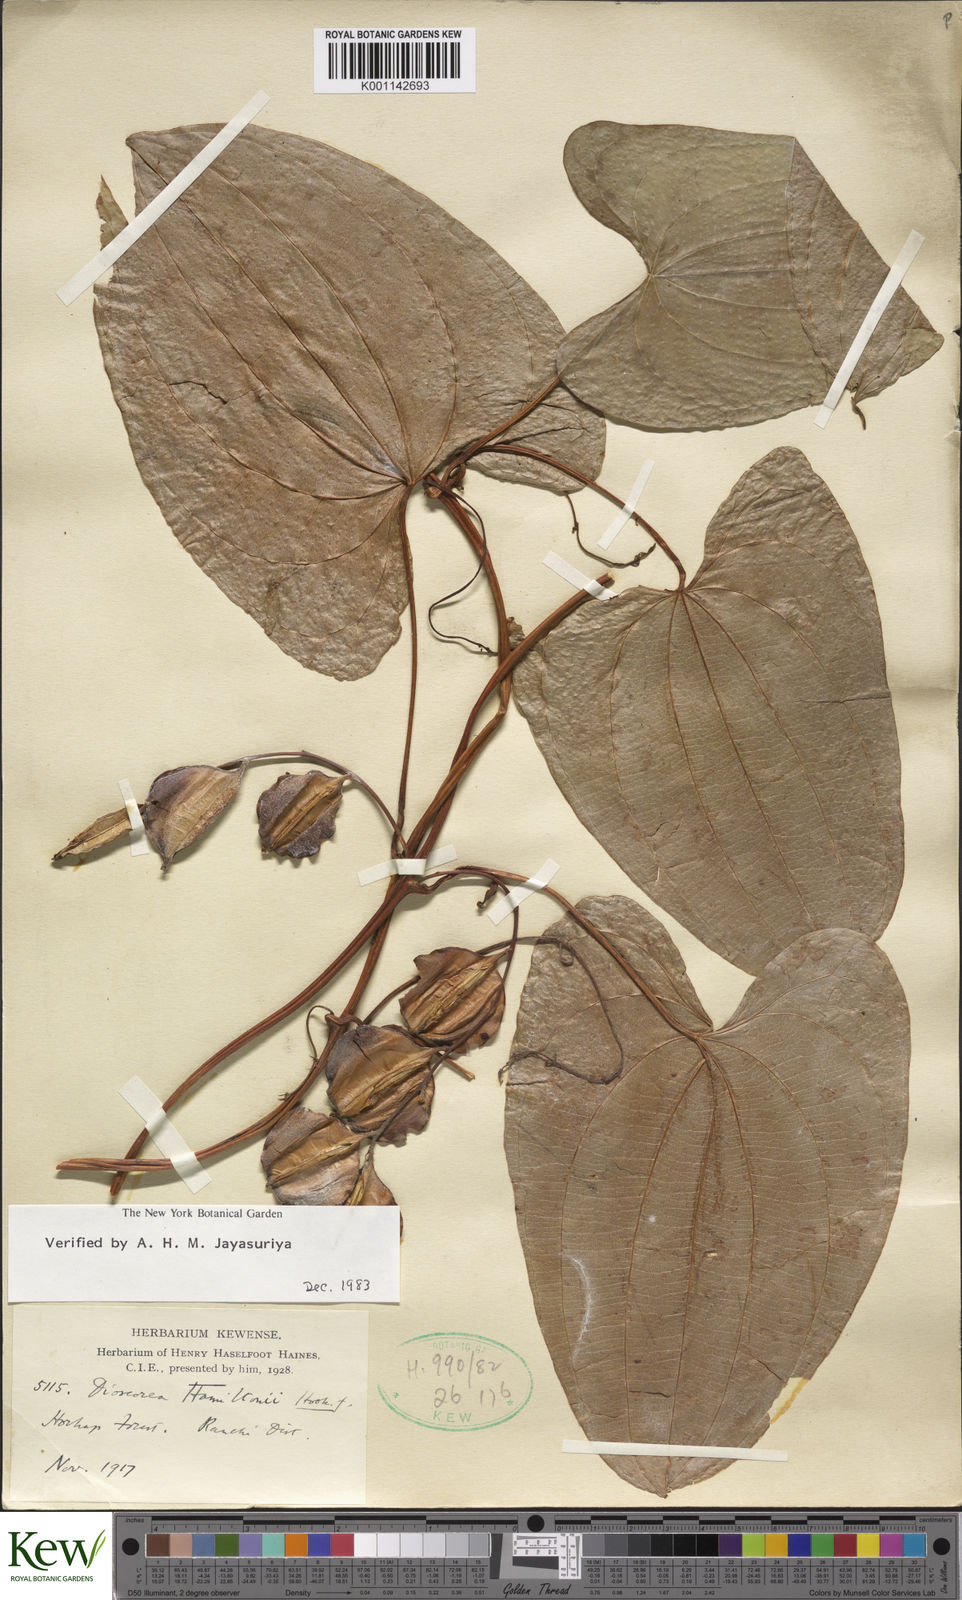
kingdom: Plantae
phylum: Tracheophyta
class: Liliopsida
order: Dioscoreales
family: Dioscoreaceae
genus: Dioscorea
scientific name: Dioscorea hamiltonii
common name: Mountain yam
